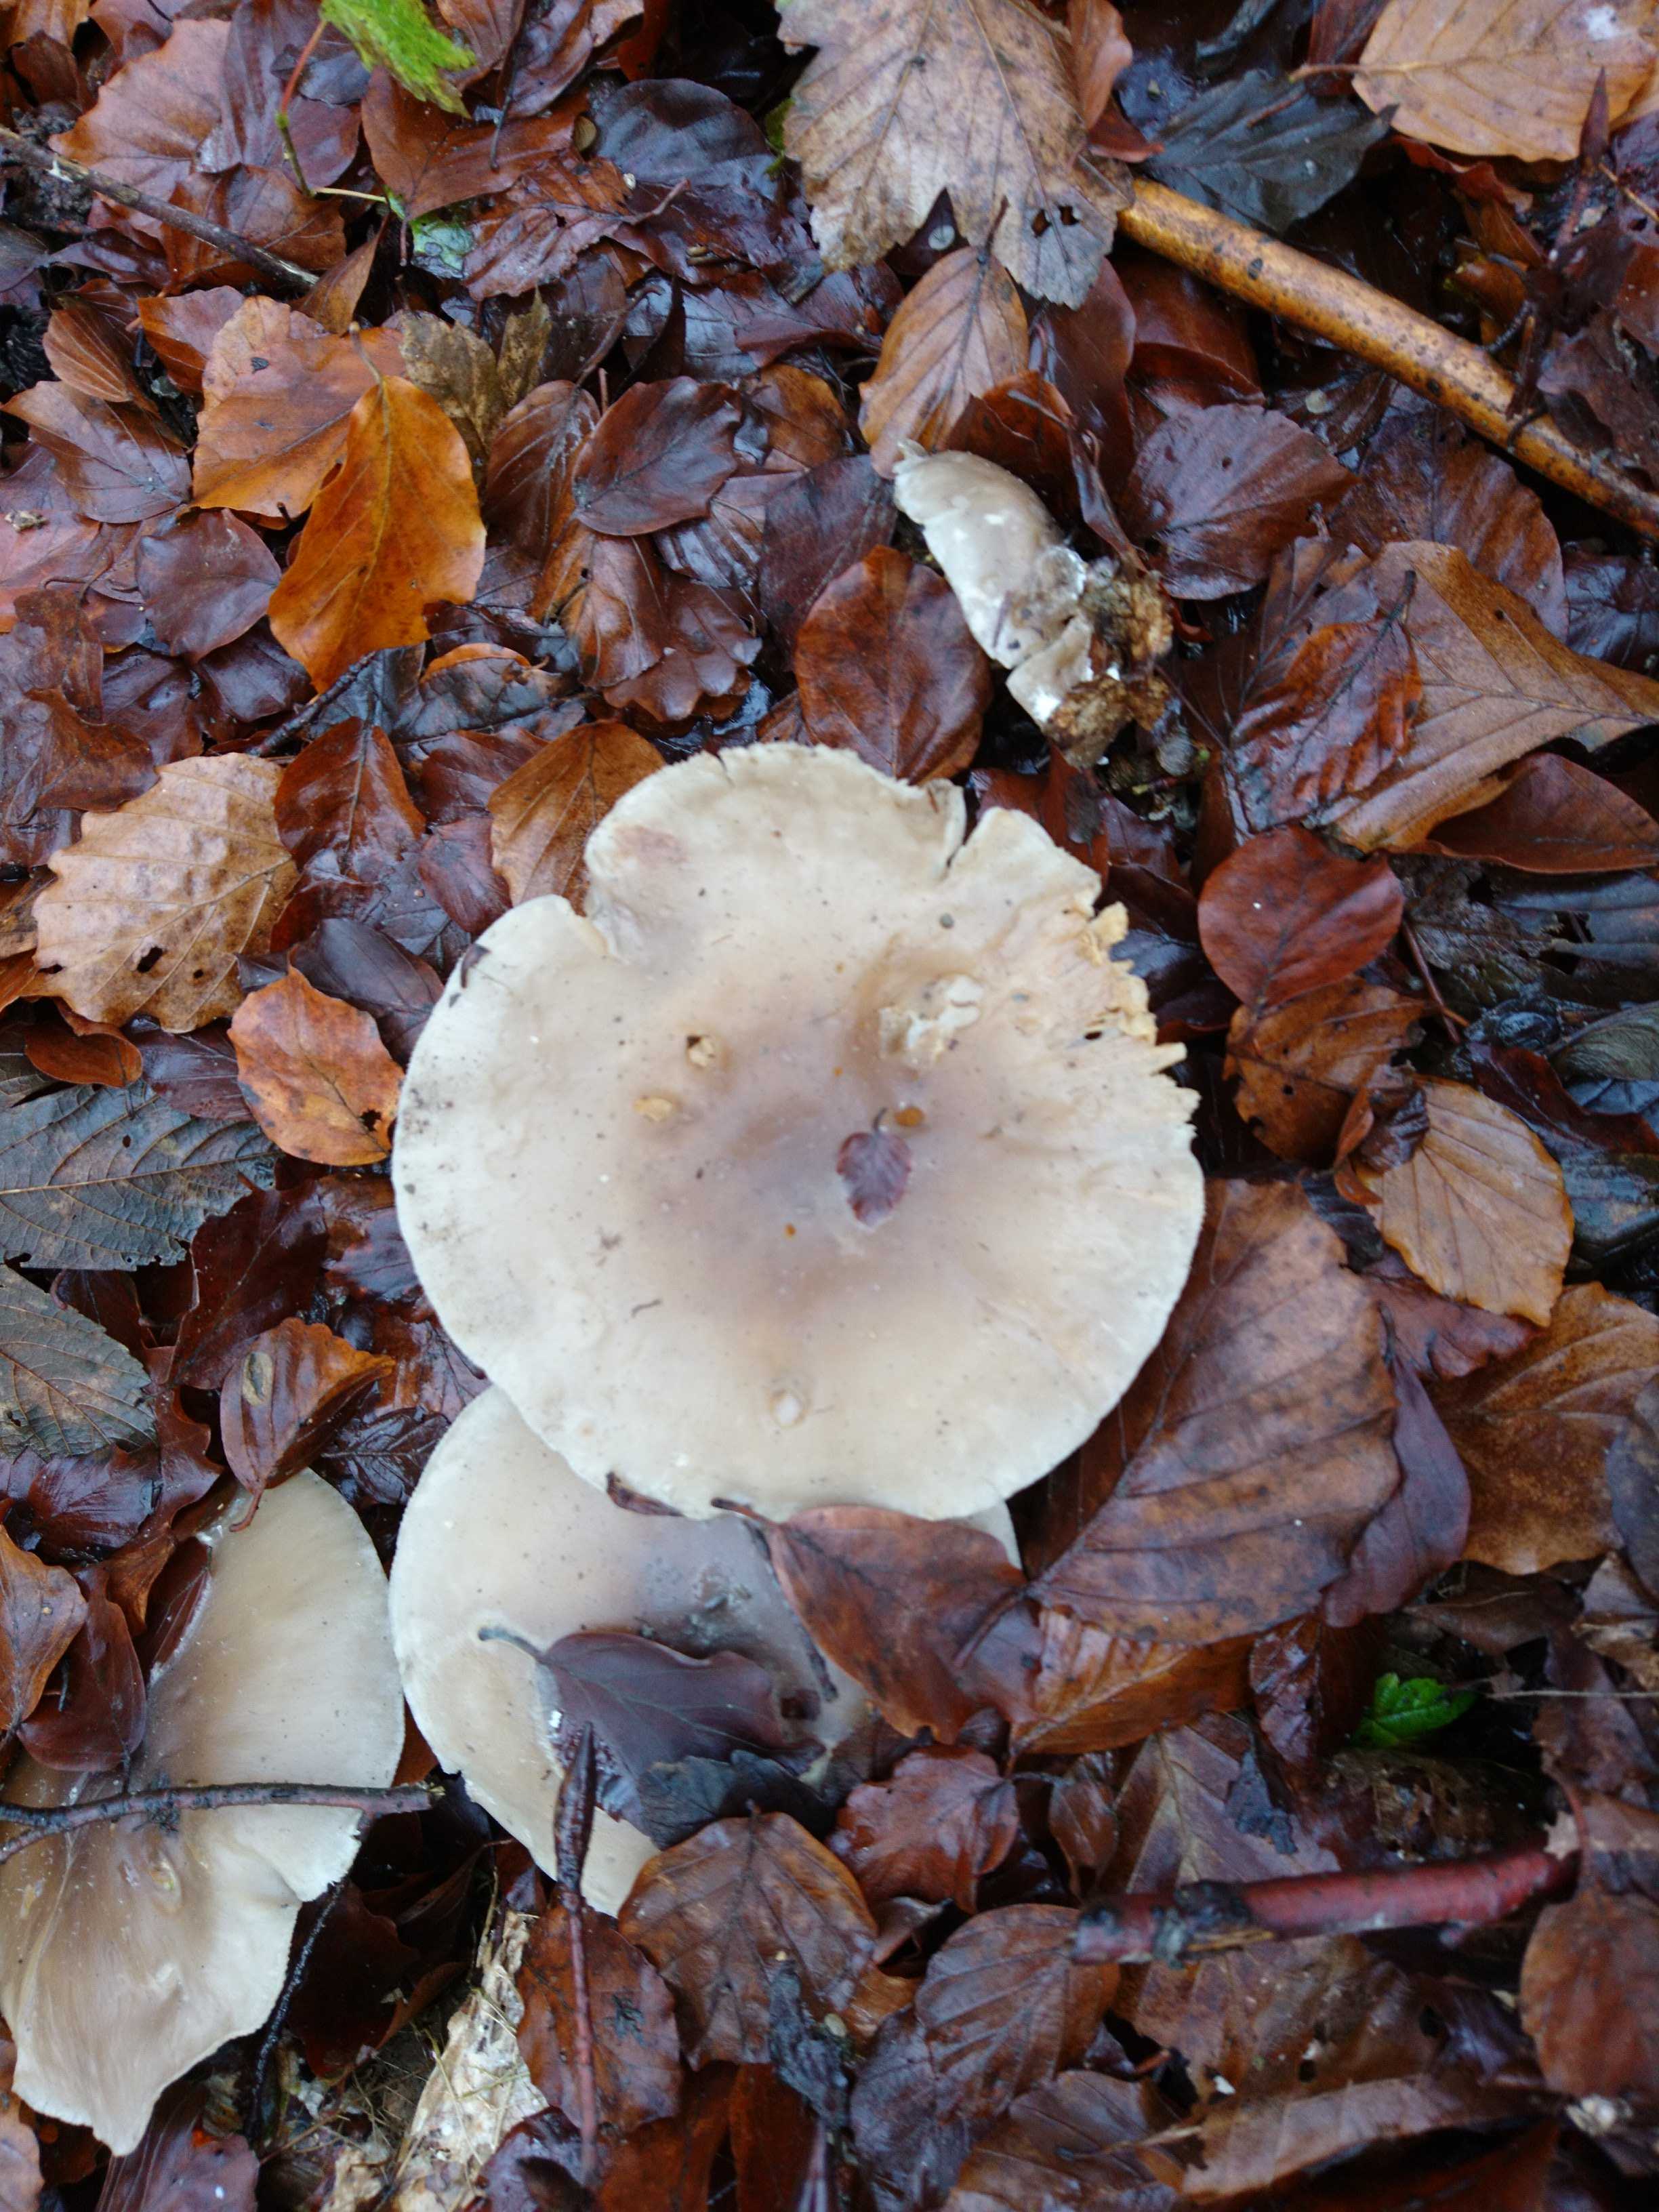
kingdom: Fungi
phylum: Basidiomycota
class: Agaricomycetes
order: Agaricales
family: Tricholomataceae
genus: Clitocybe
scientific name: Clitocybe nebularis
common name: tåge-tragthat
